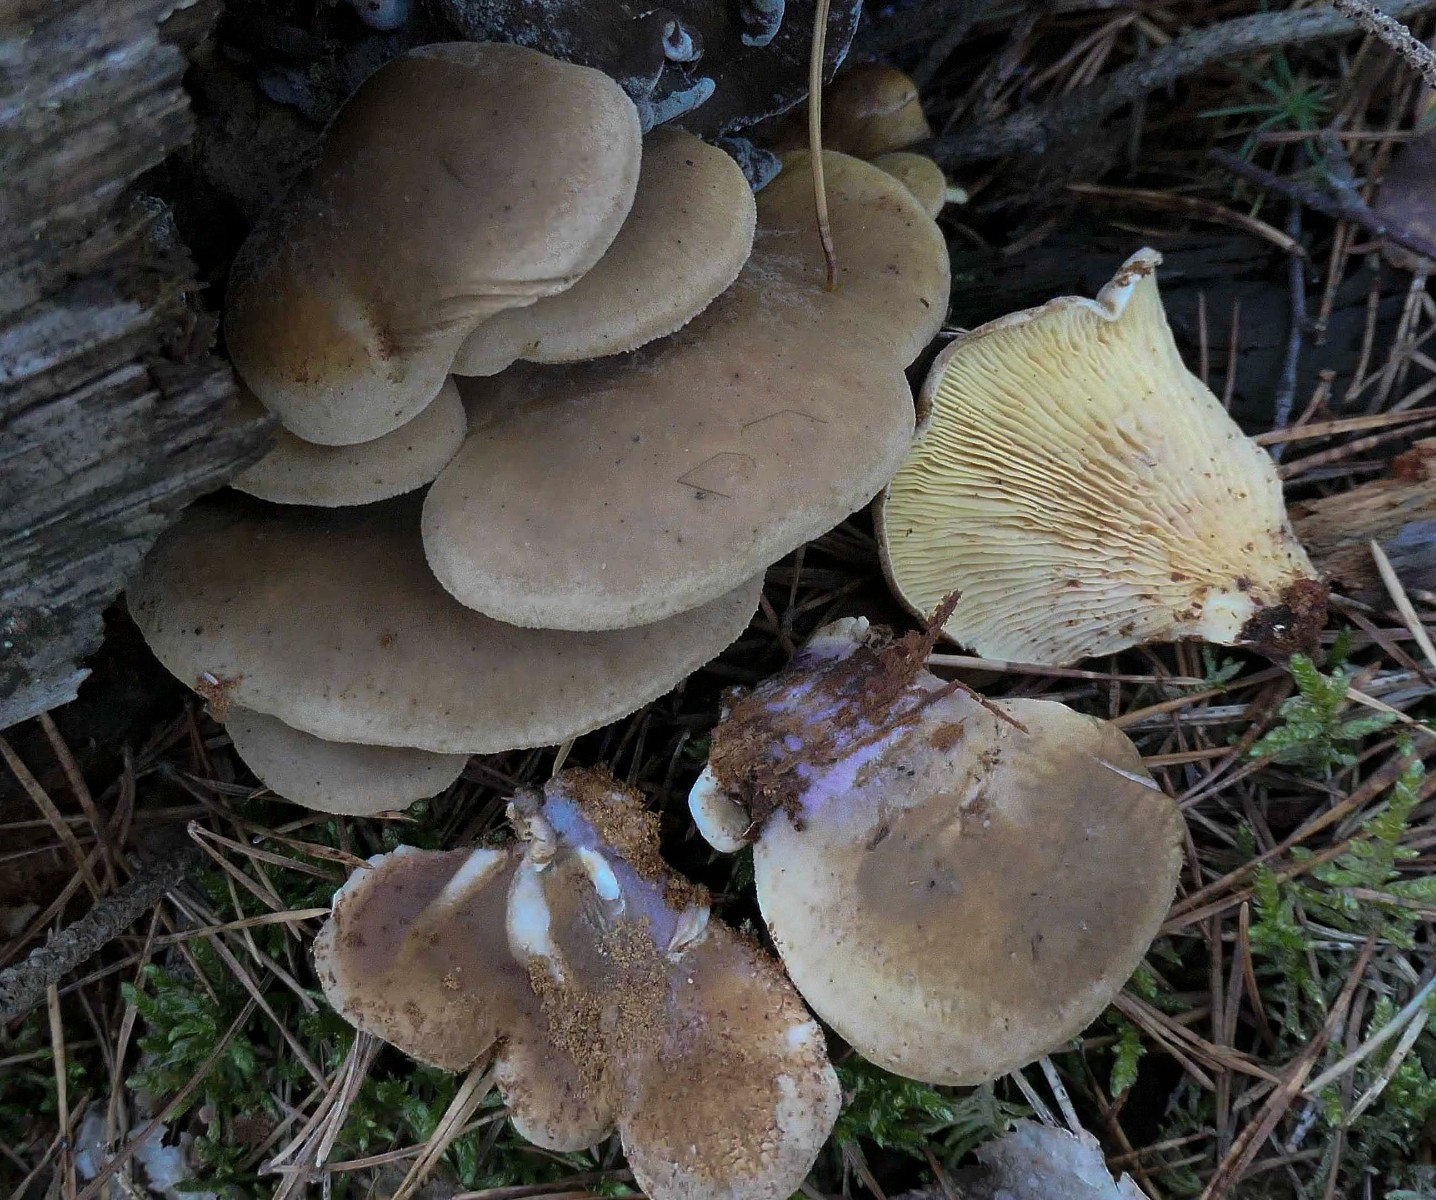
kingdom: Fungi
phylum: Basidiomycota
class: Agaricomycetes
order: Boletales
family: Tapinellaceae
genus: Tapinella
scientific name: Tapinella panuoides
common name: tømmer-viftesvamp
